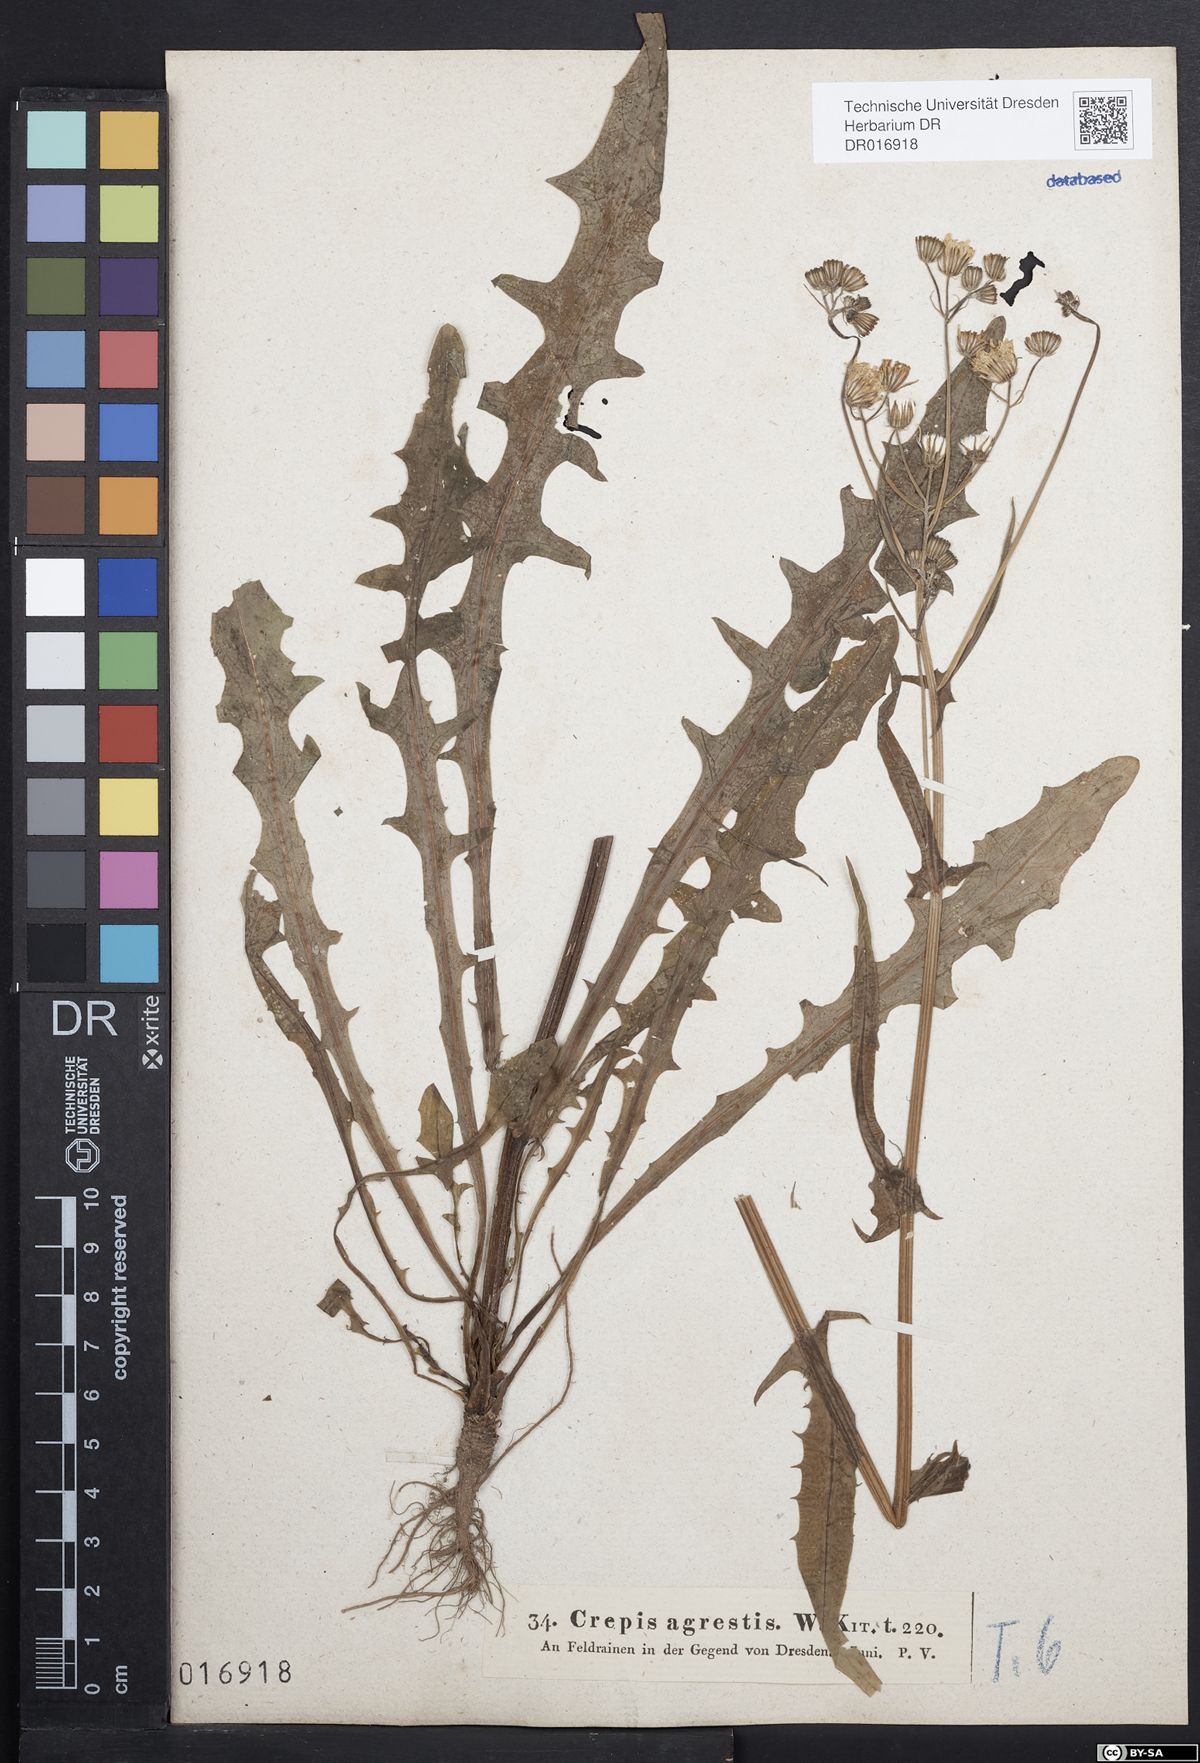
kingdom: Plantae
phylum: Tracheophyta
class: Magnoliopsida
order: Asterales
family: Asteraceae
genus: Crepis
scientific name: Crepis capillaris
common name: Smooth hawksbeard
